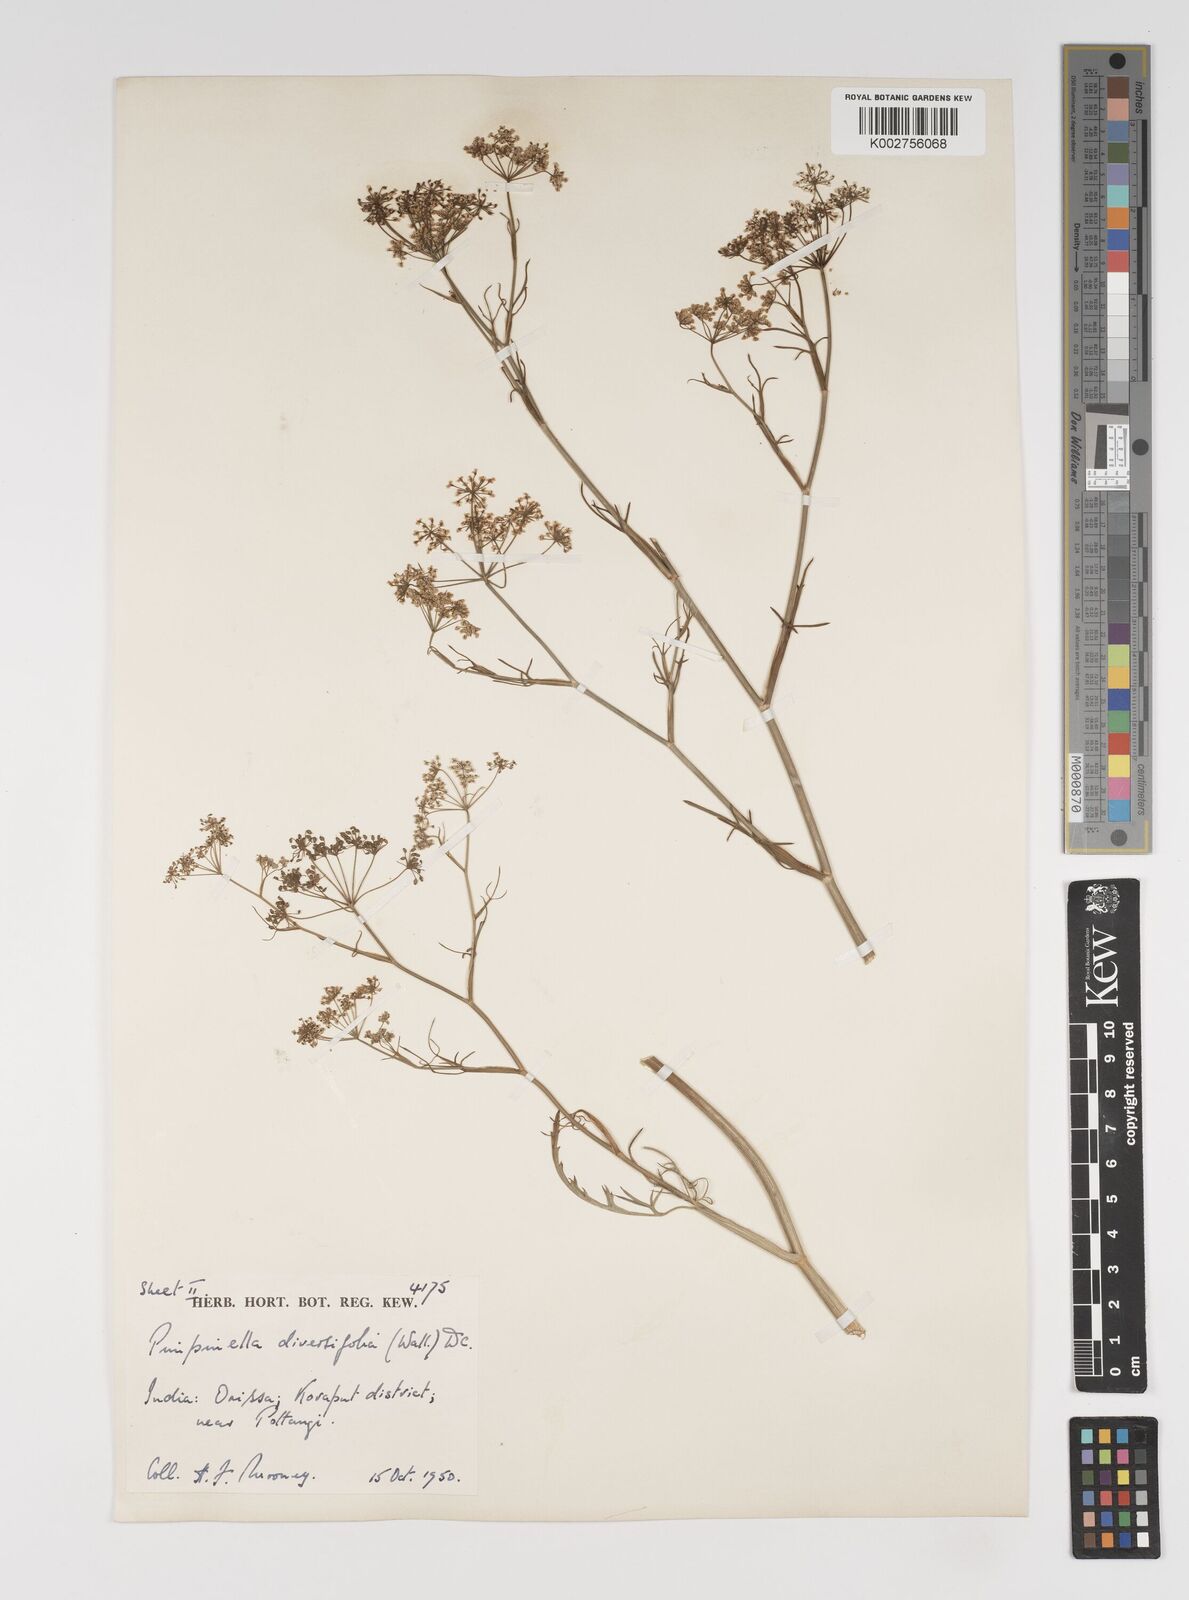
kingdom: Plantae
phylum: Tracheophyta
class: Magnoliopsida
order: Apiales
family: Apiaceae
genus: Pimpinella
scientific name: Pimpinella diversifolia
